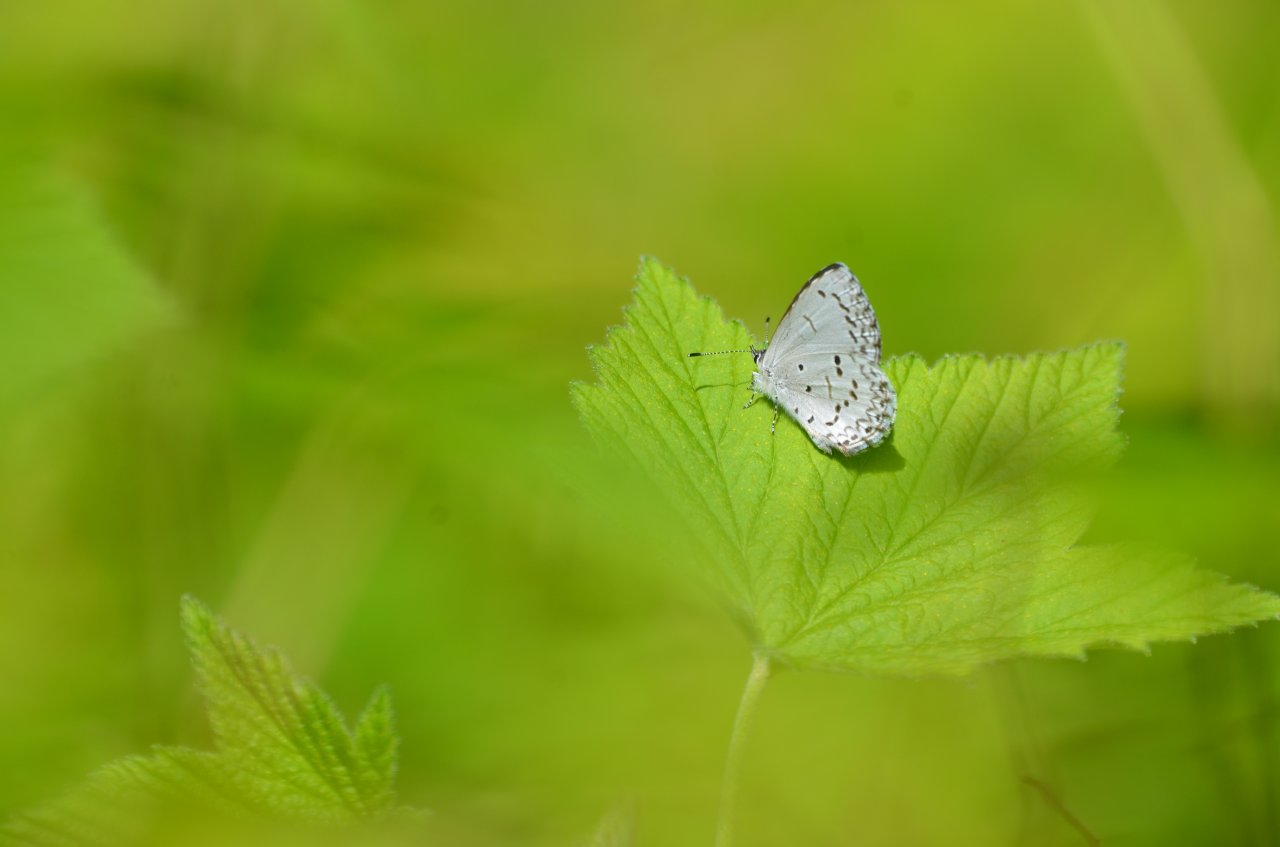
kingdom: Animalia
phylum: Arthropoda
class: Insecta
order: Lepidoptera
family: Lycaenidae
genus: Celastrina
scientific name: Celastrina
